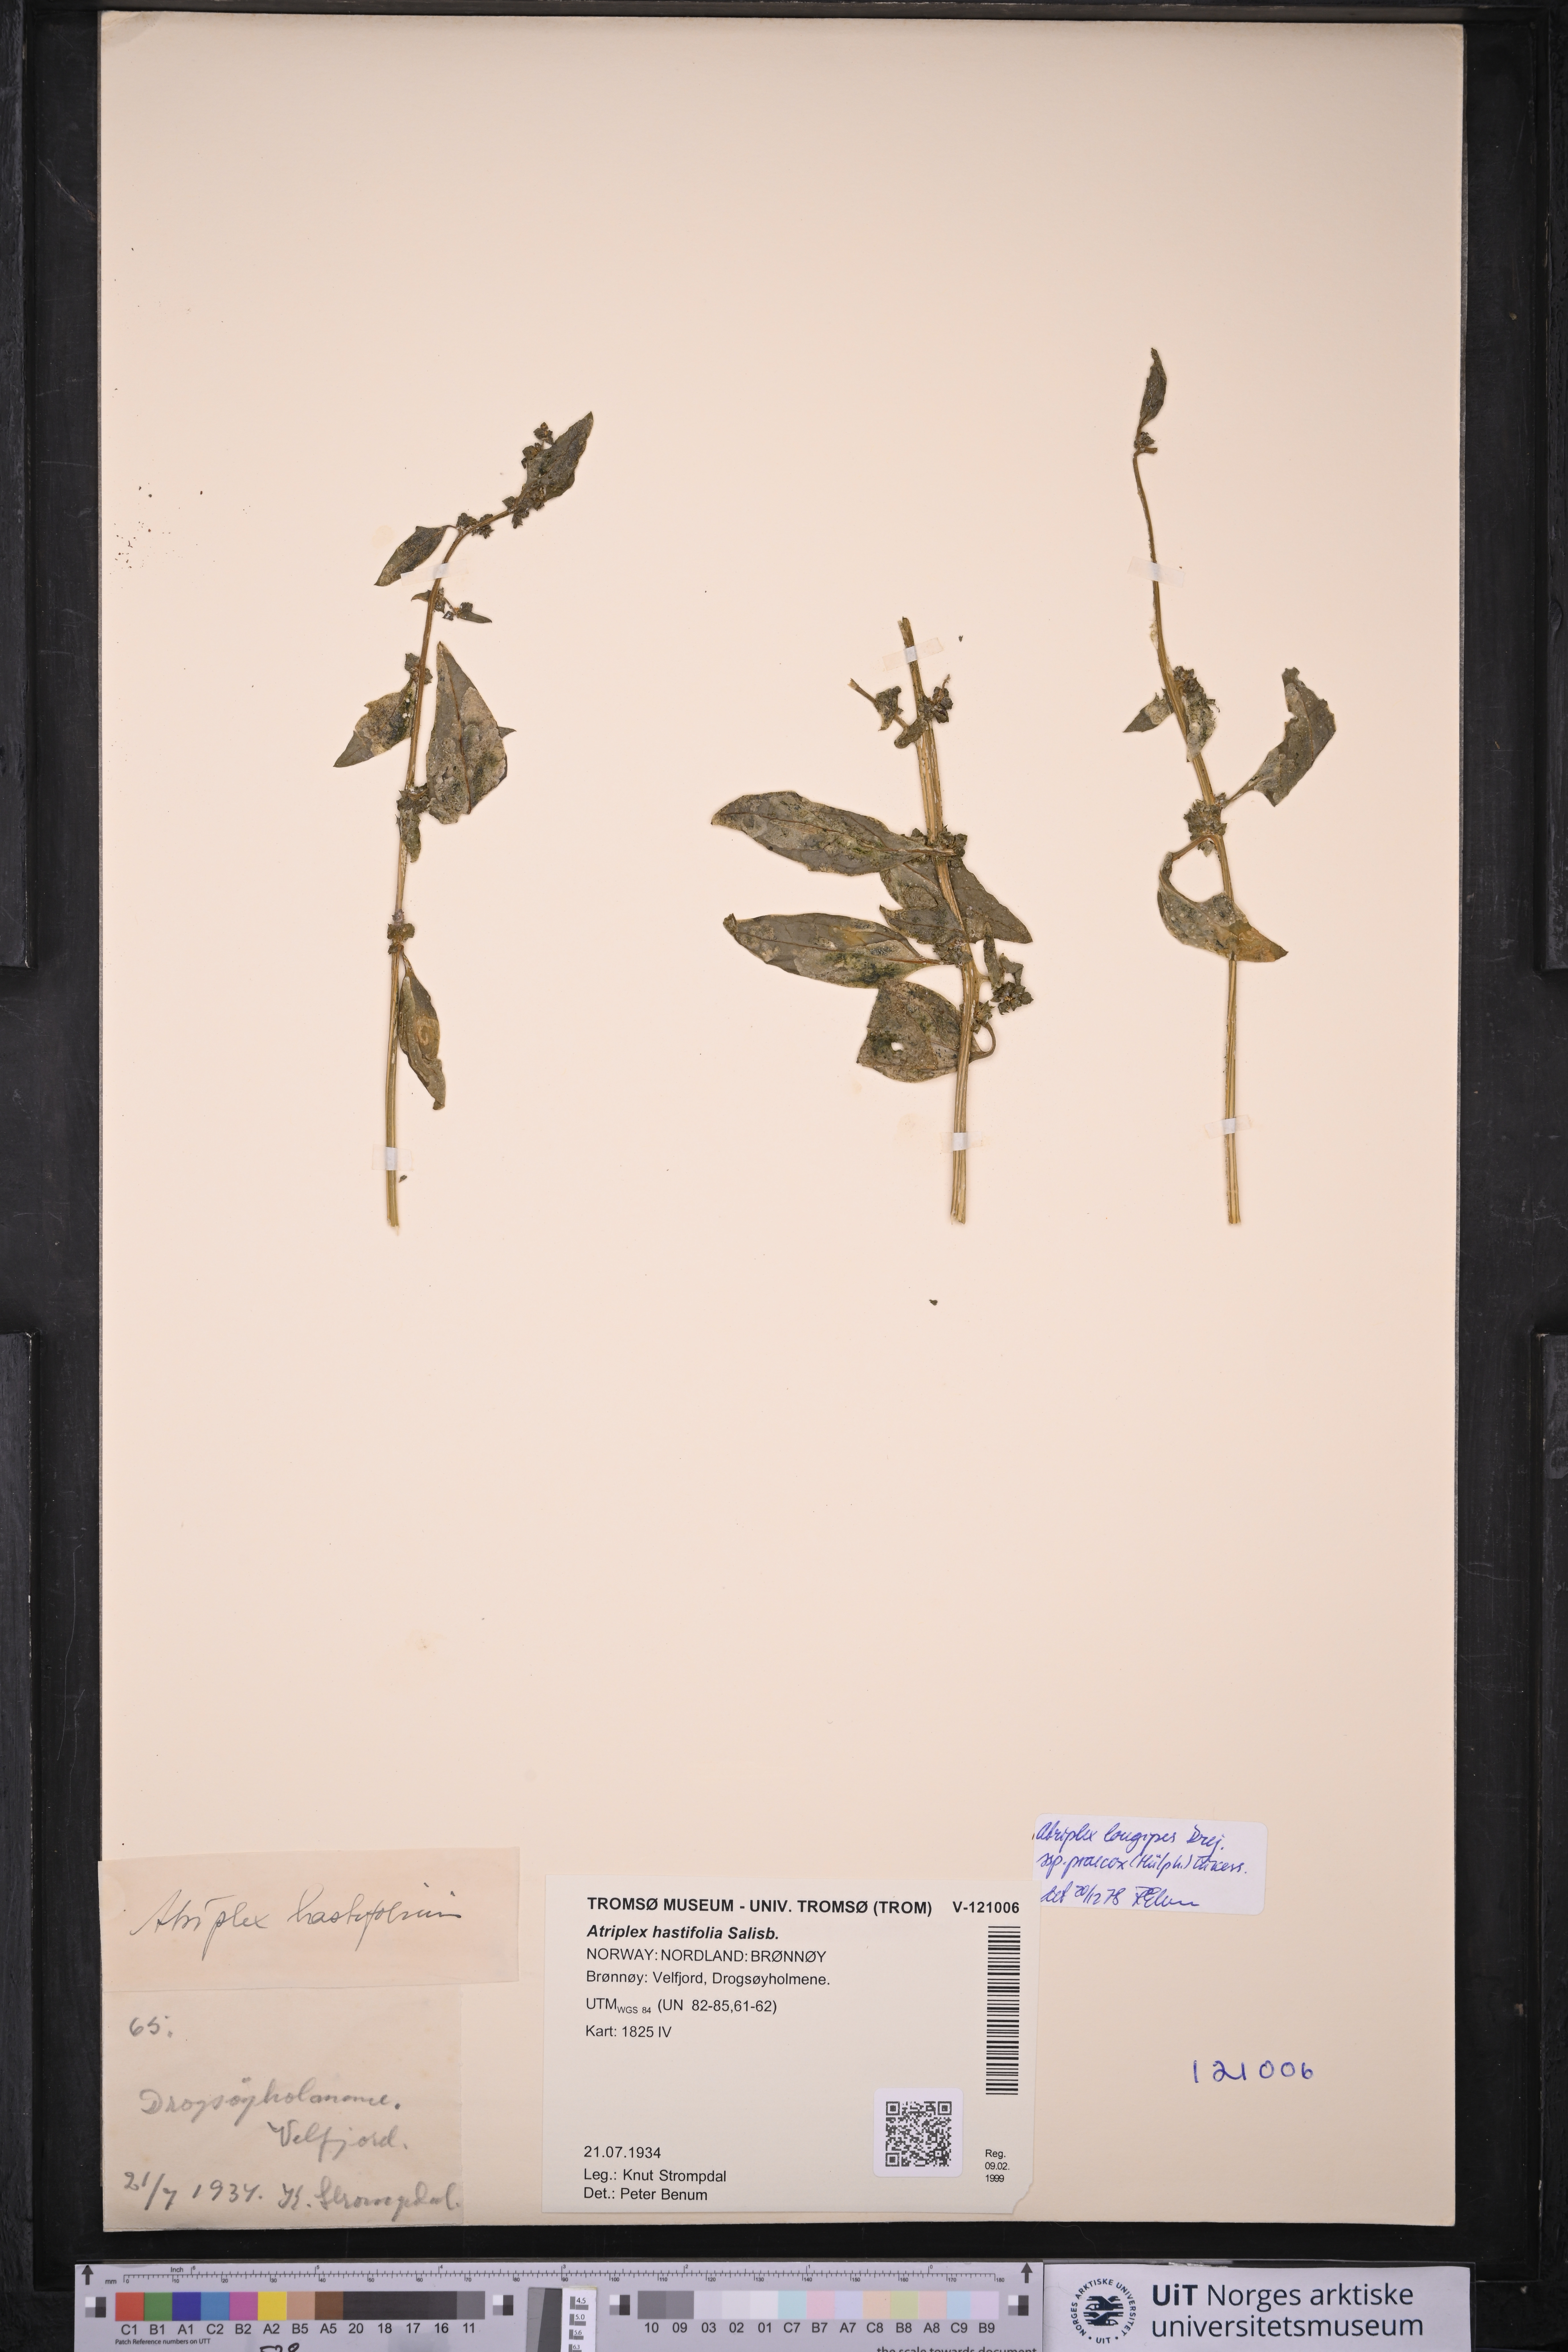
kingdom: Plantae
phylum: Tracheophyta
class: Magnoliopsida
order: Caryophyllales
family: Amaranthaceae
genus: Atriplex
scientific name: Atriplex praecox
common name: Early orache
